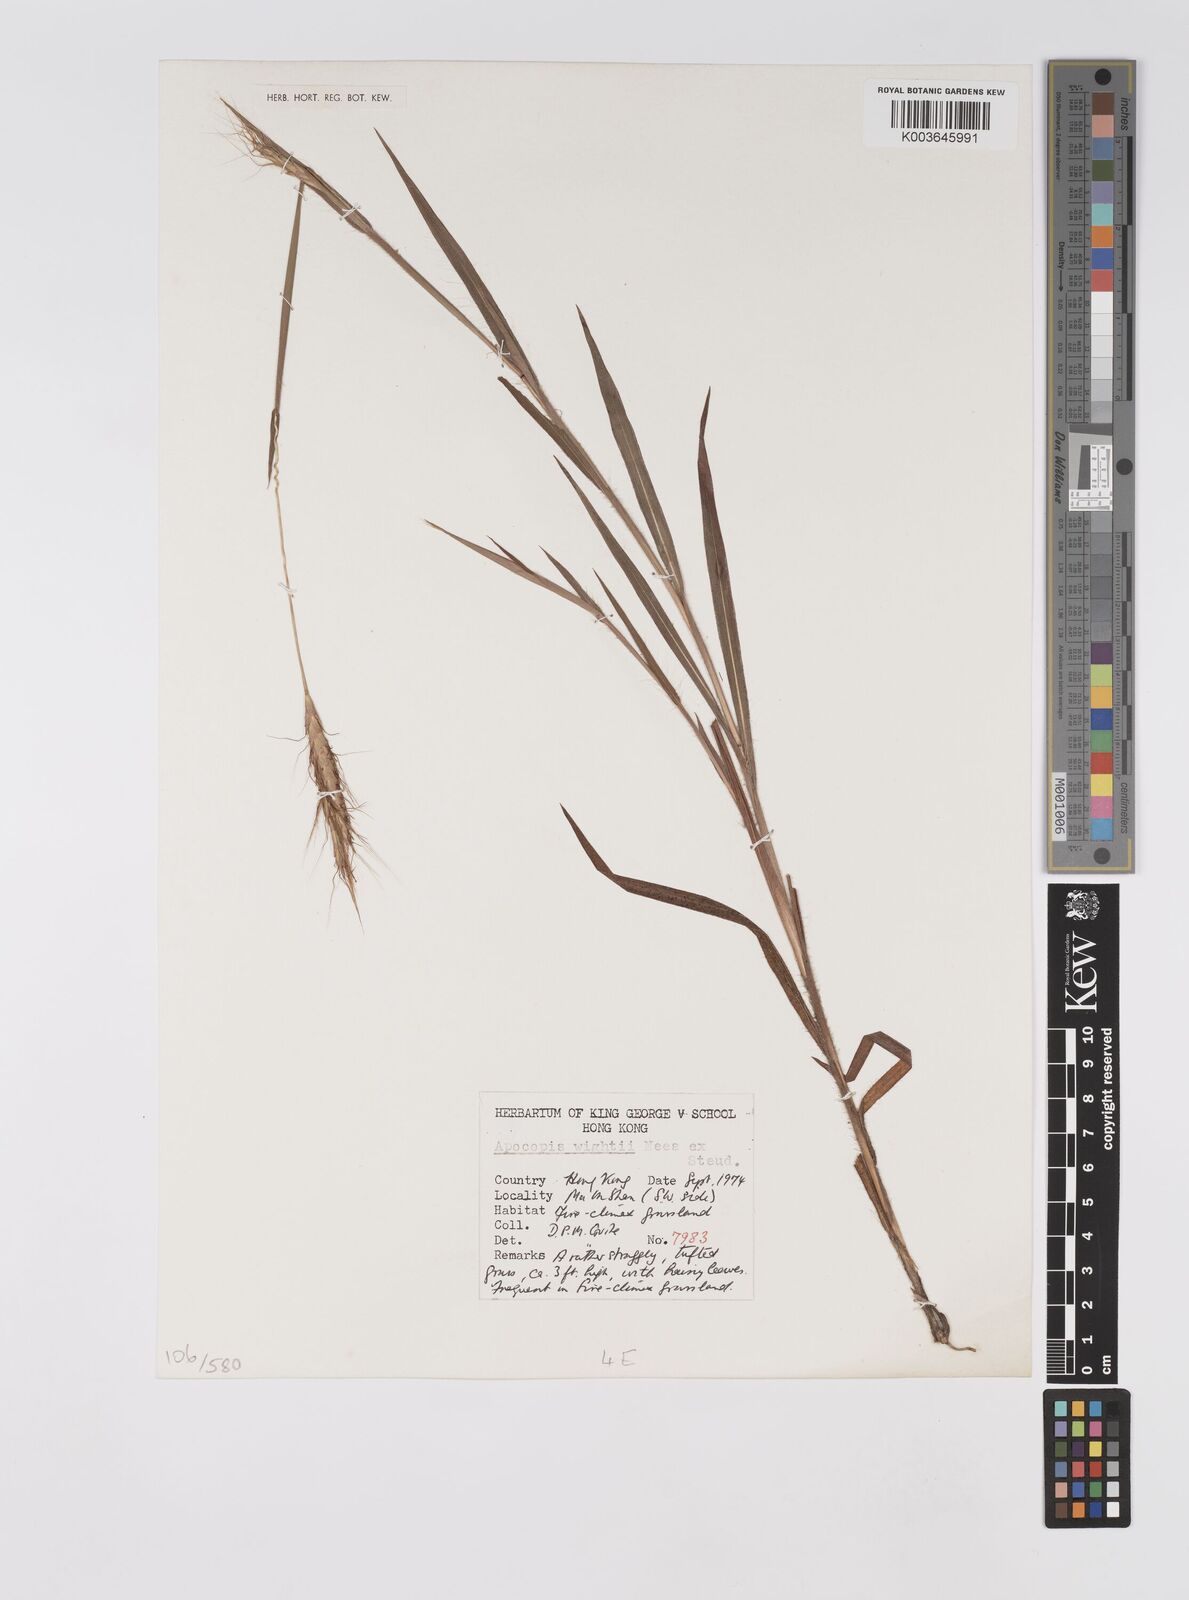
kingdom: Plantae
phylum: Tracheophyta
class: Liliopsida
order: Poales
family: Poaceae
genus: Apocopis
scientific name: Apocopis wrightii
